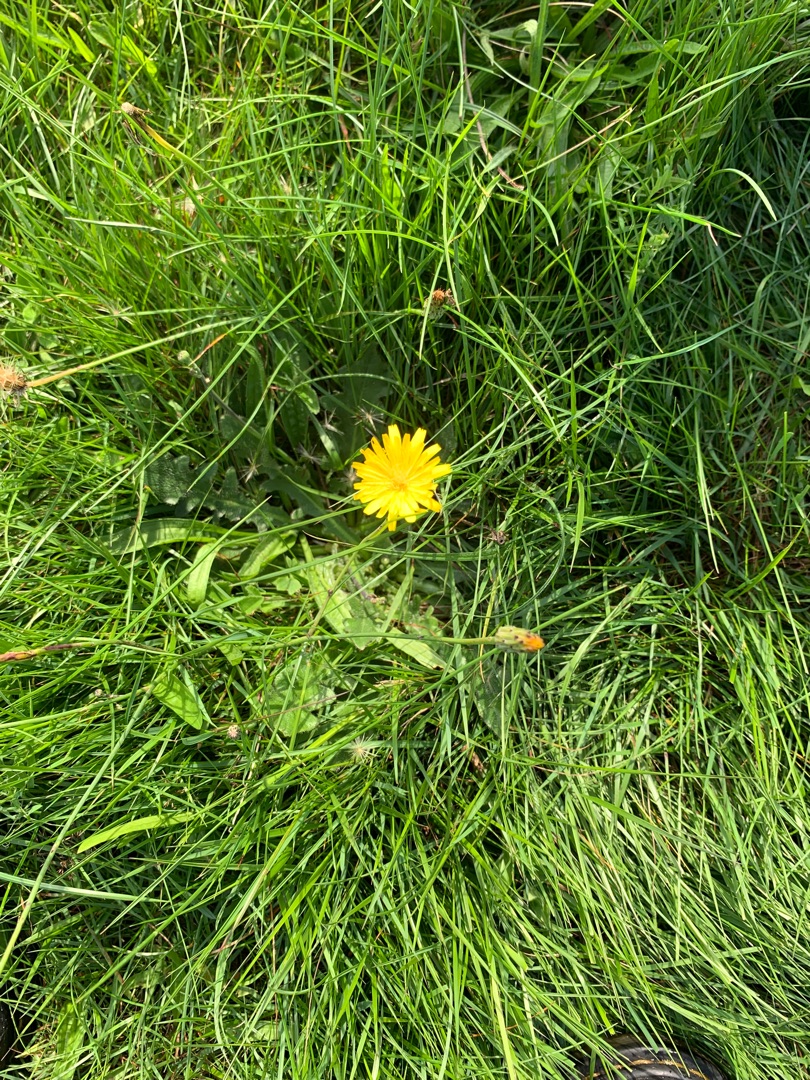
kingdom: Plantae
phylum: Tracheophyta
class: Magnoliopsida
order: Asterales
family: Asteraceae
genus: Hypochaeris
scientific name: Hypochaeris radicata
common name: Almindelig kongepen
